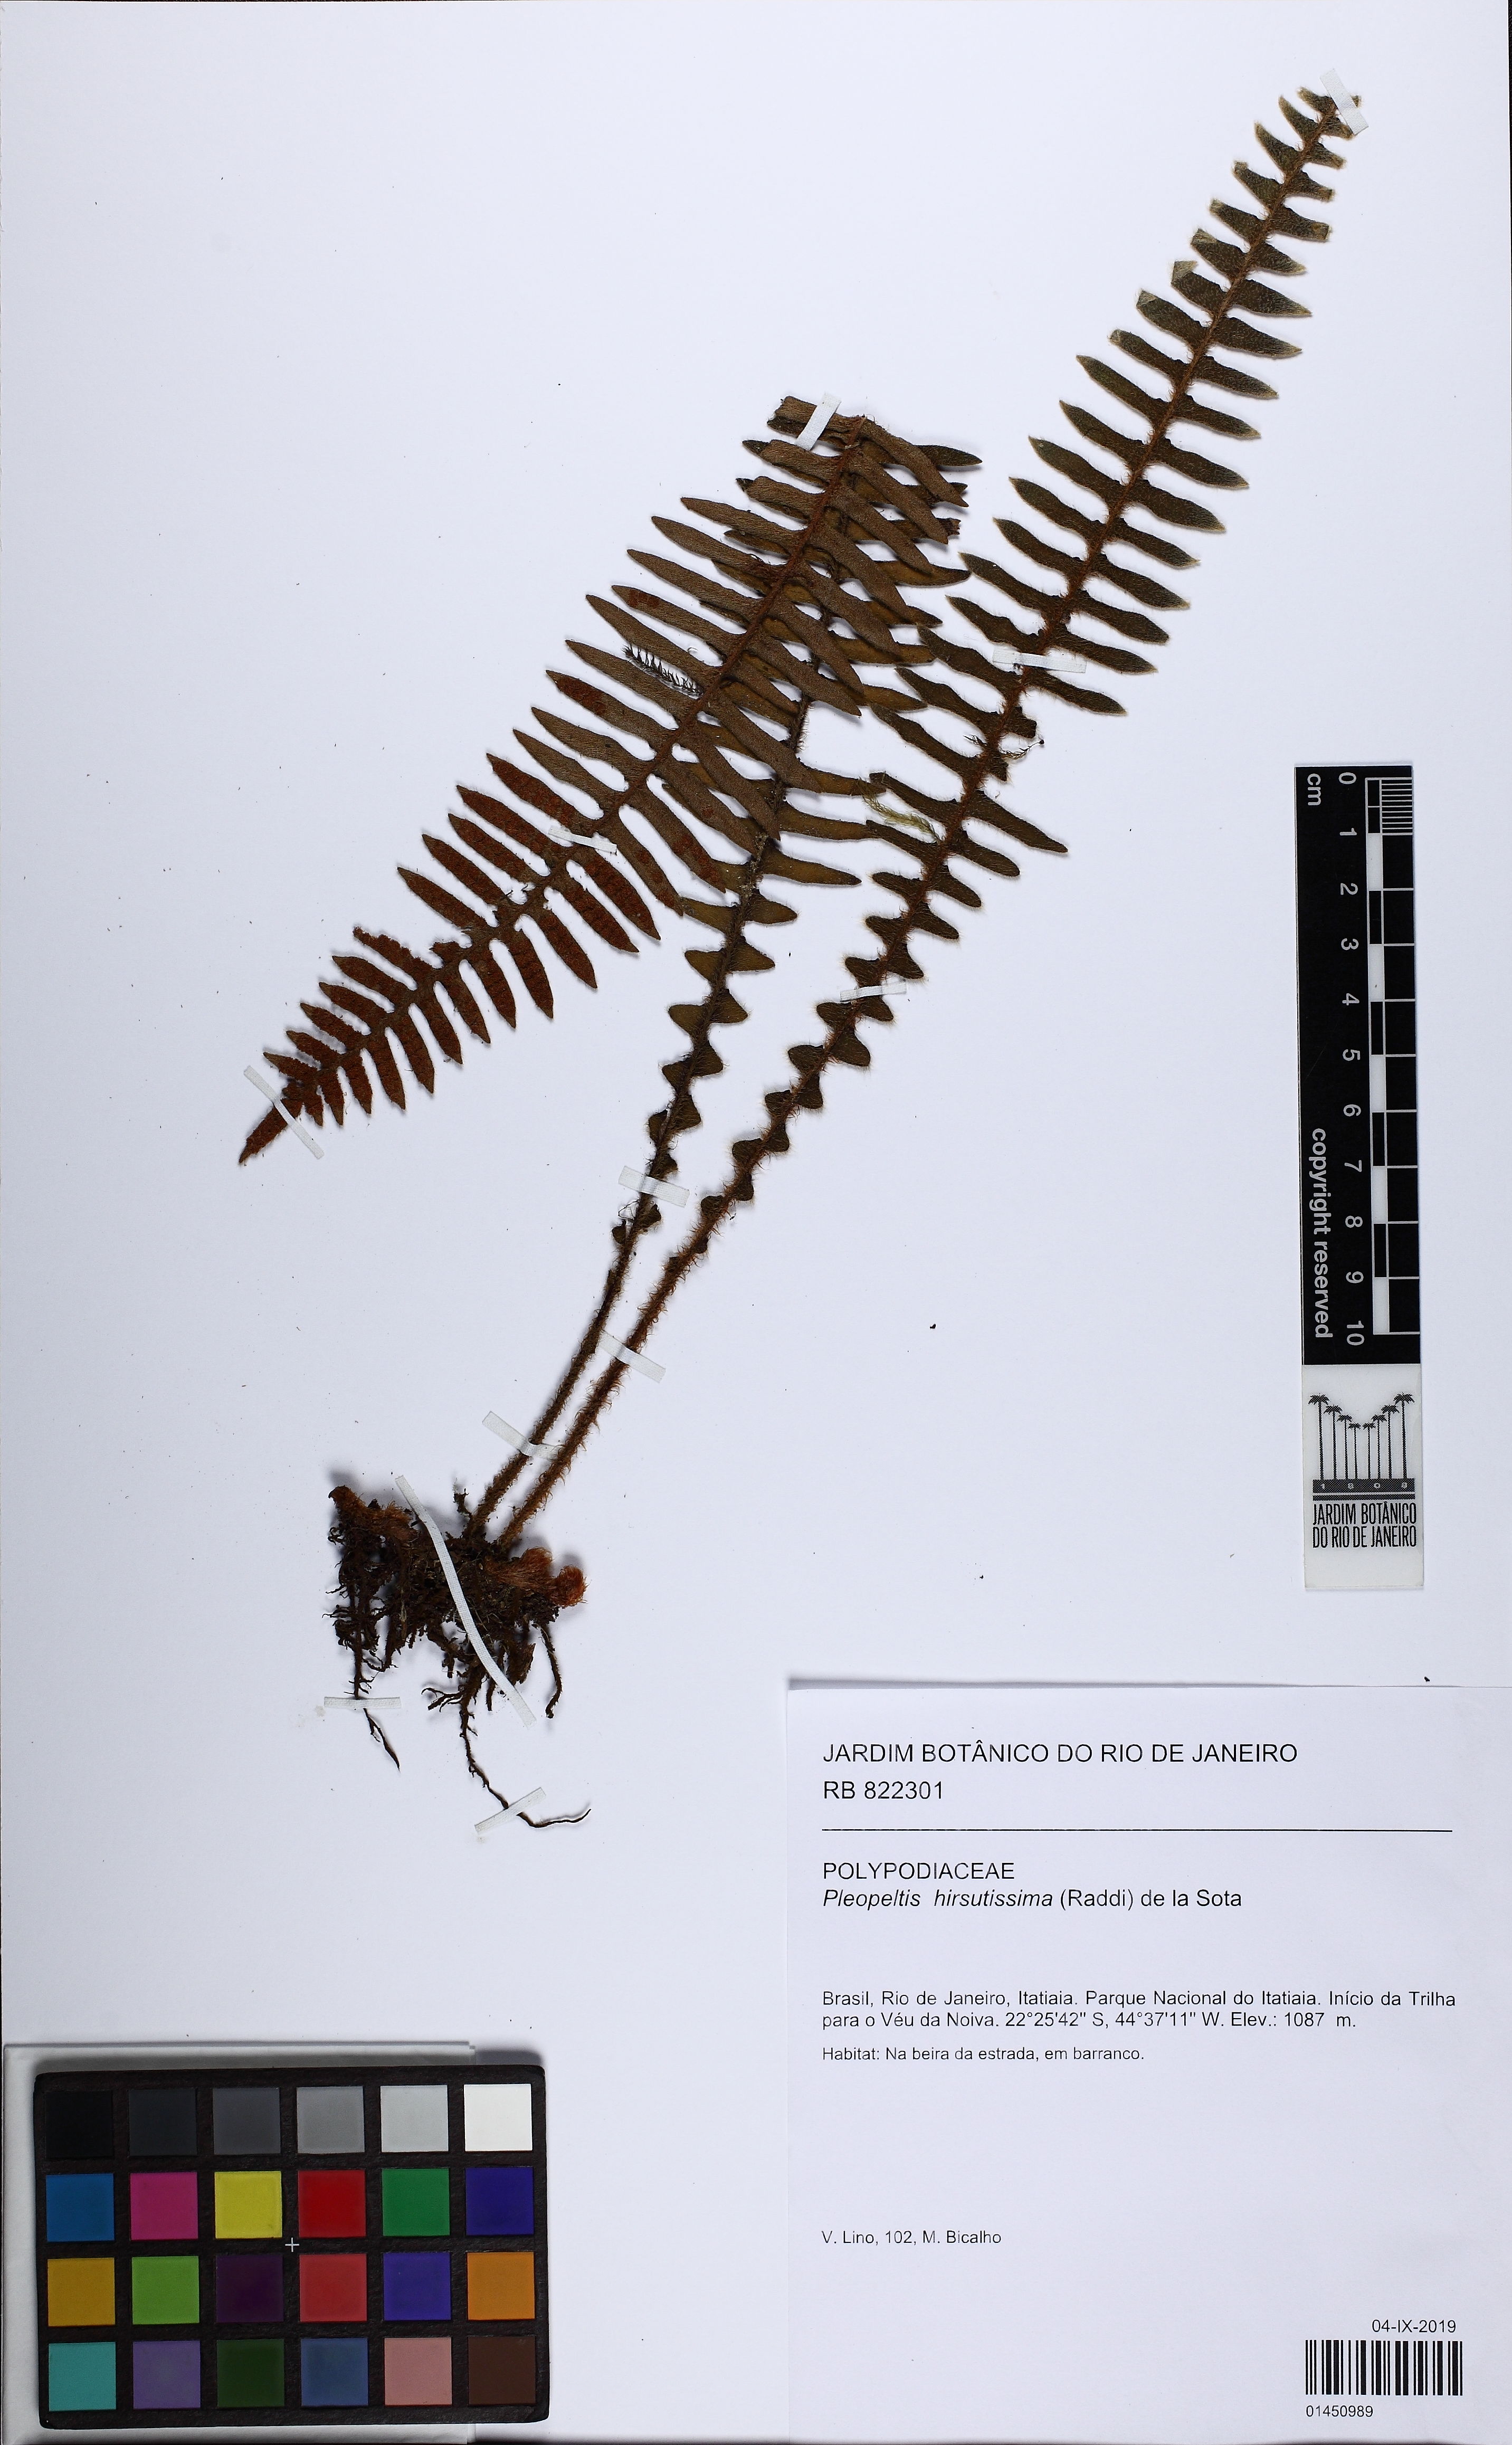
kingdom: Plantae
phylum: Tracheophyta
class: Polypodiopsida
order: Polypodiales
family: Polypodiaceae
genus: Pleopeltis
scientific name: Pleopeltis hirsutissima
